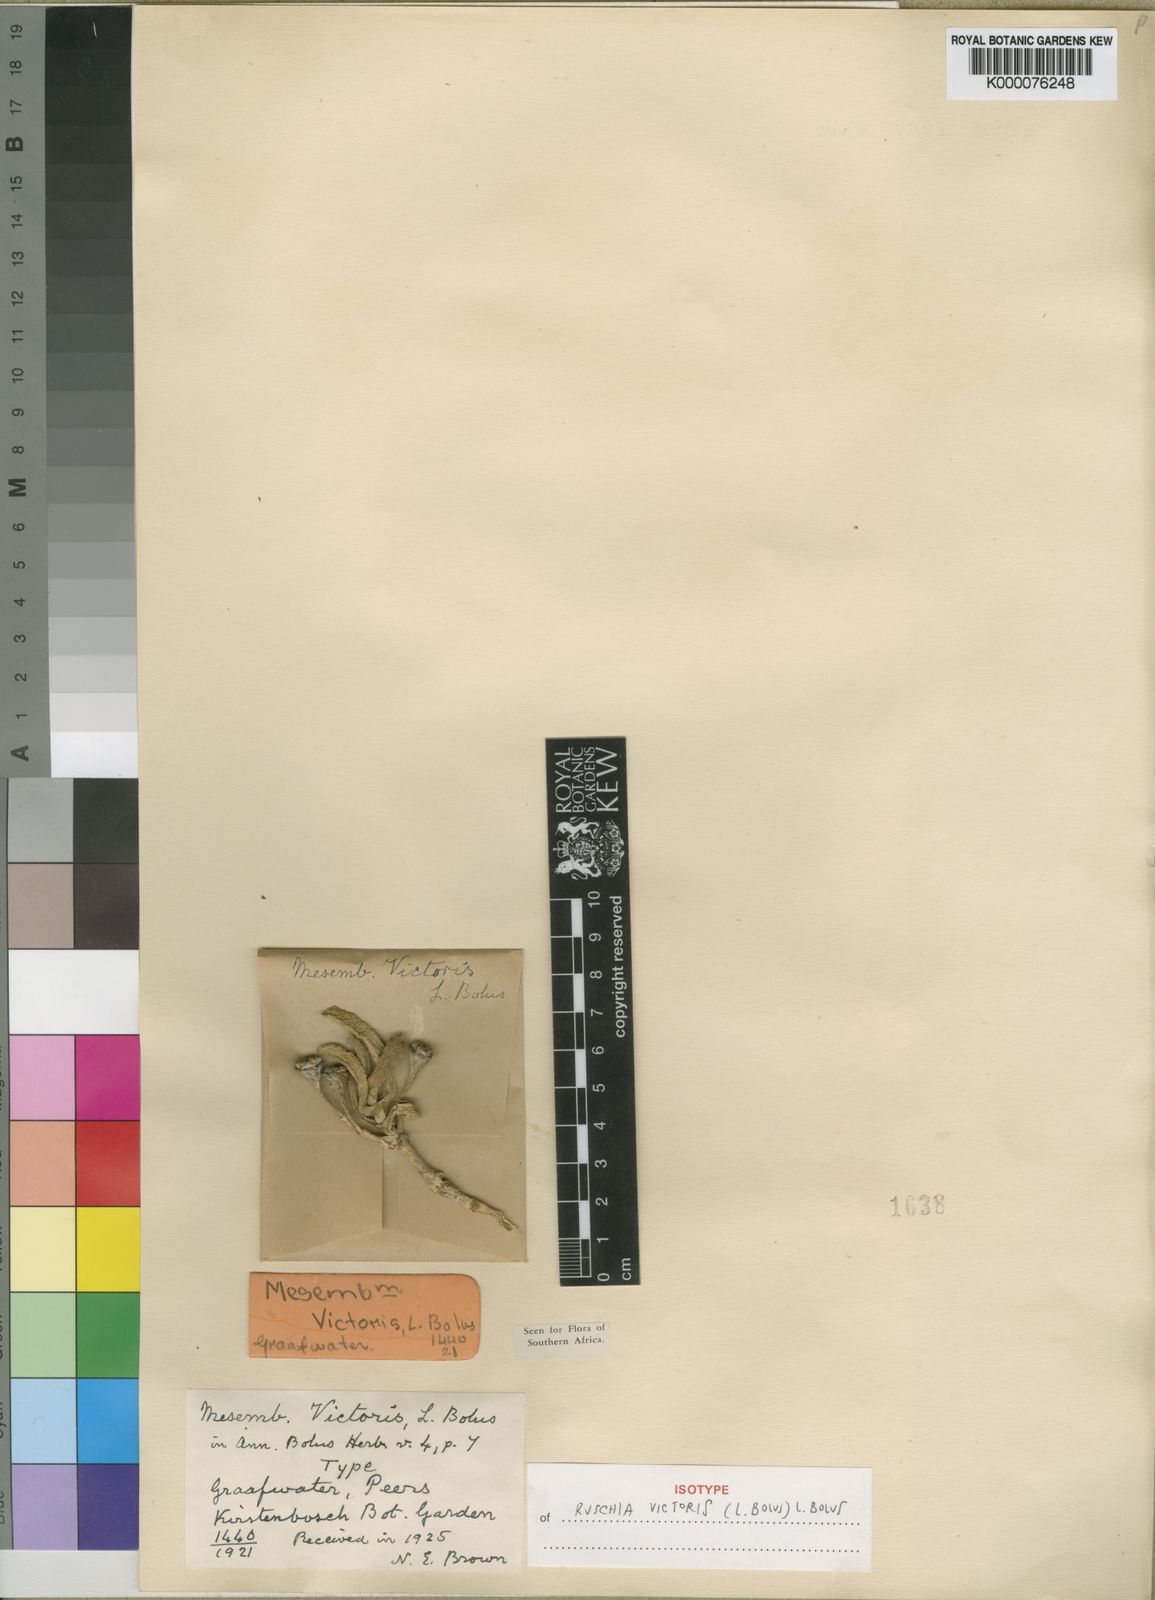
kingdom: Plantae
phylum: Tracheophyta
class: Magnoliopsida
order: Caryophyllales
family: Aizoaceae
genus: Ruschia
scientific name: Ruschia victoris
